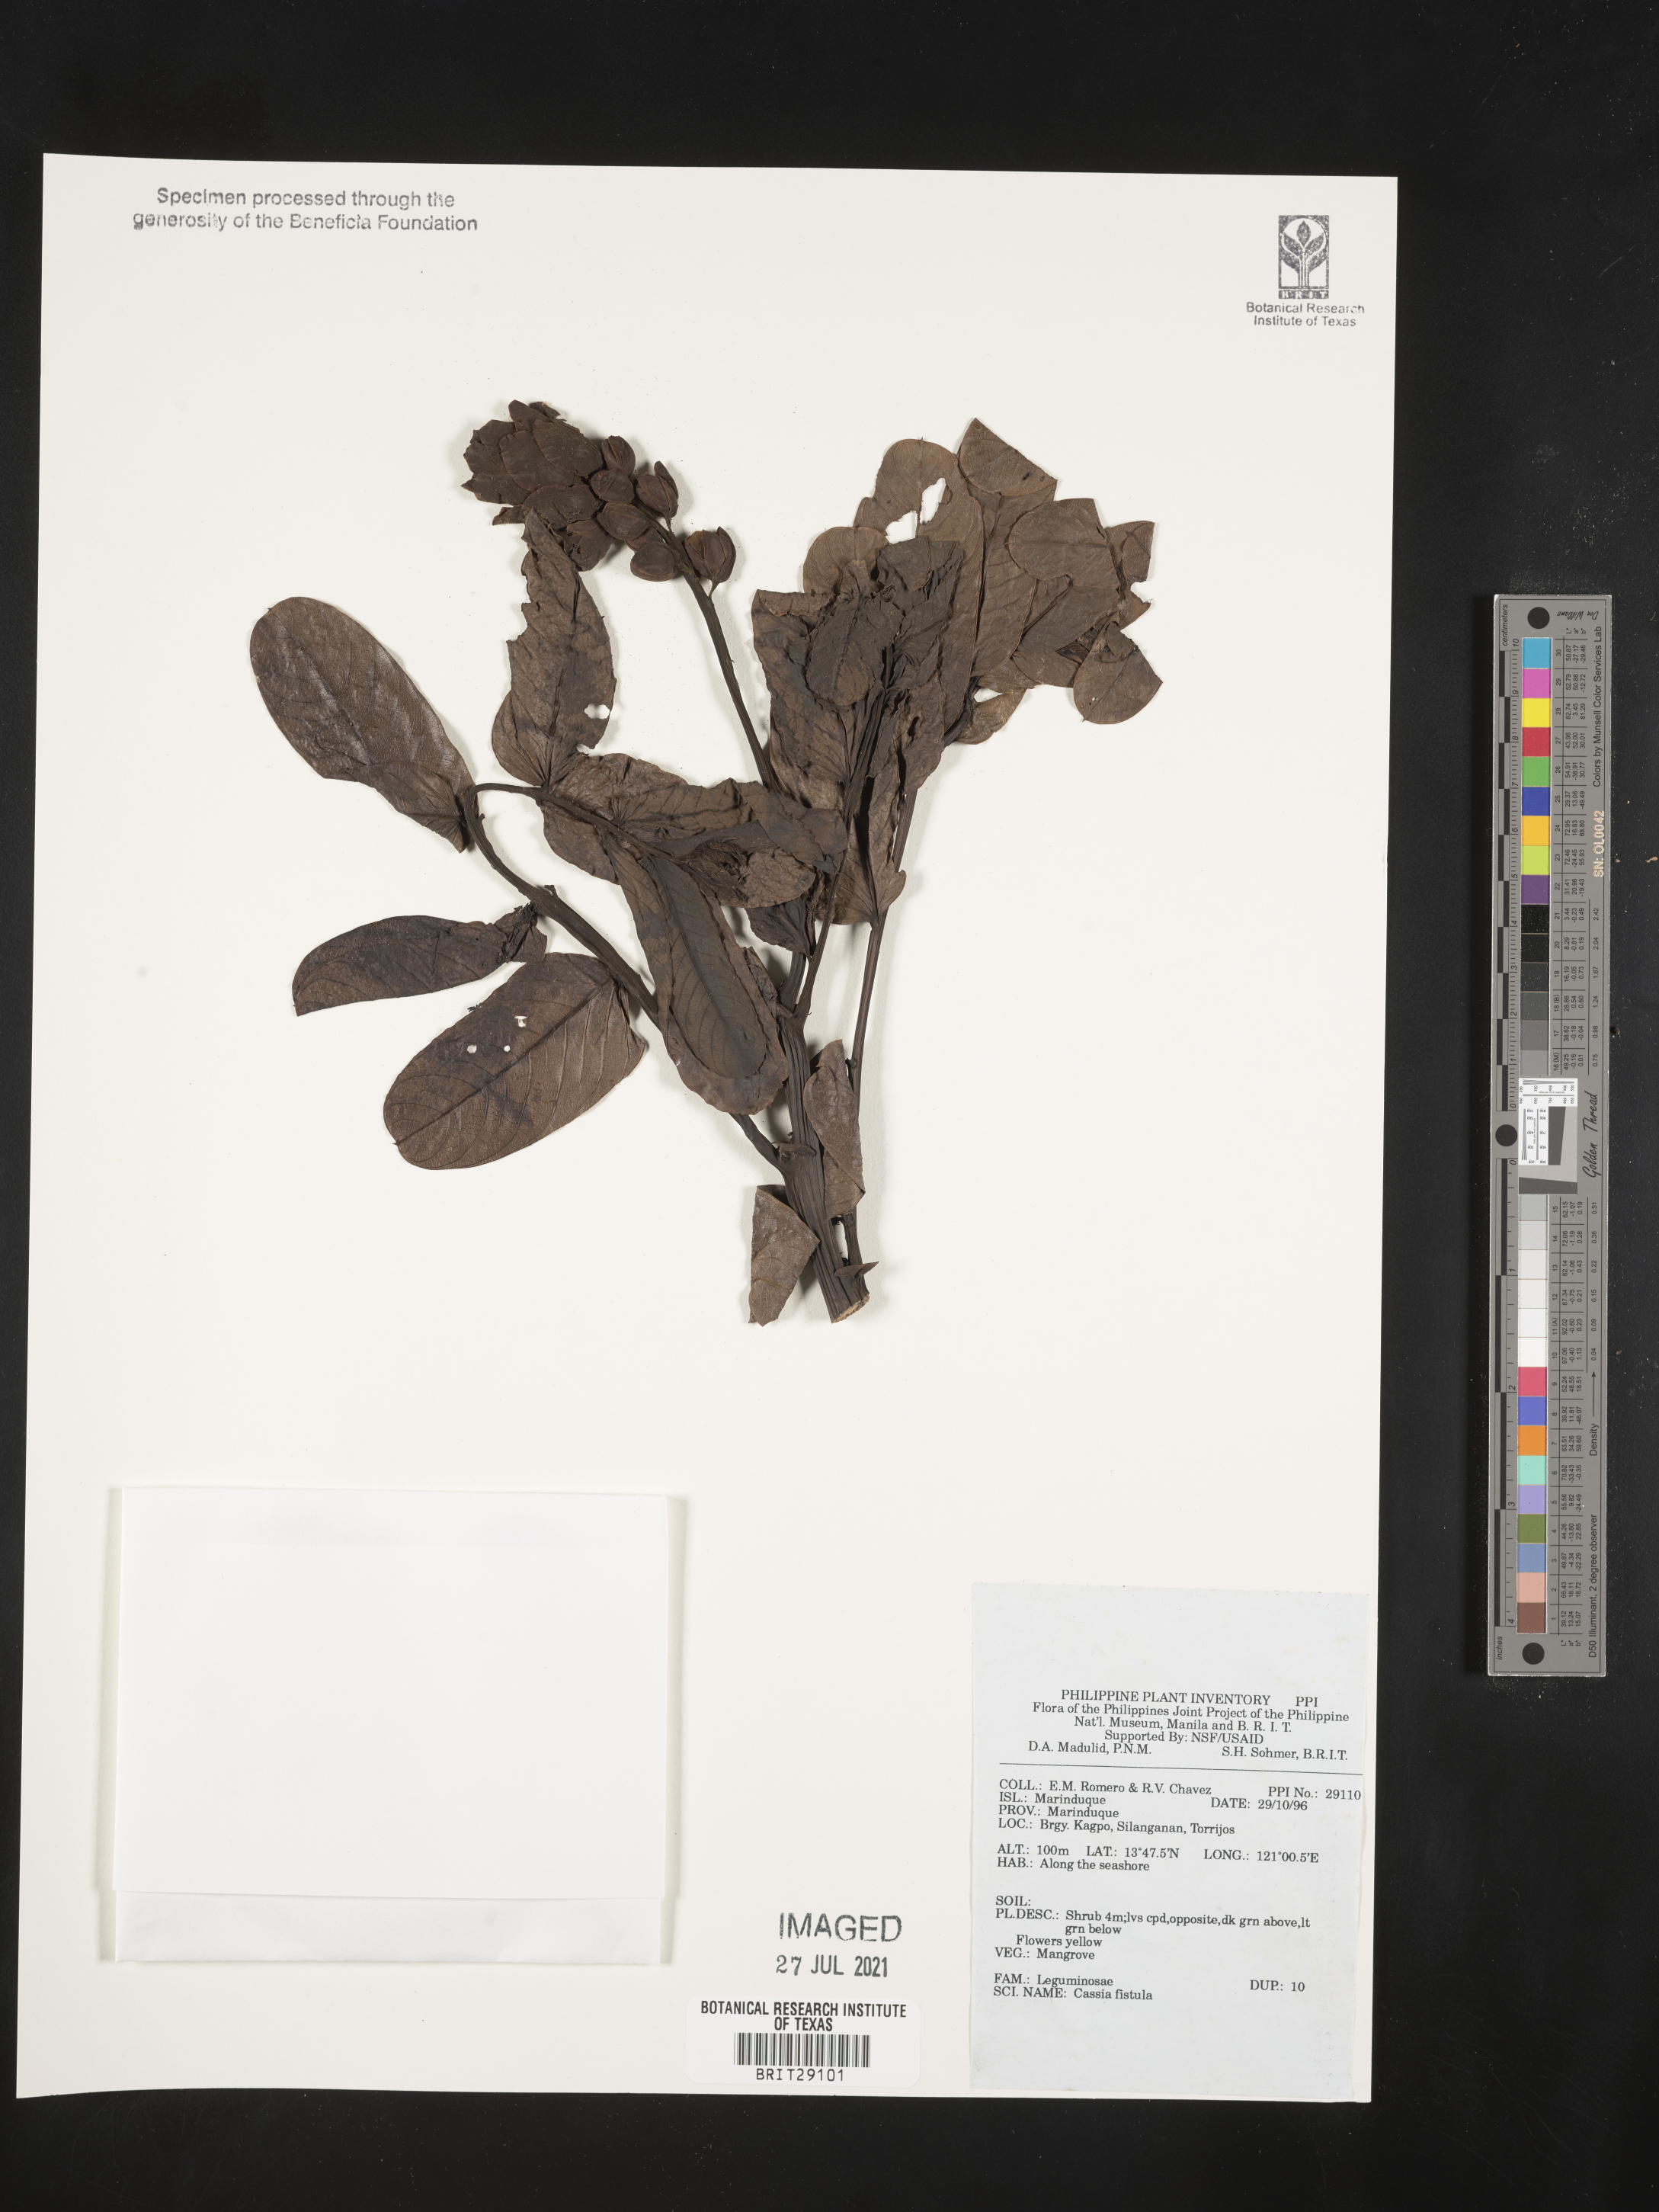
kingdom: Plantae
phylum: Tracheophyta
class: Magnoliopsida
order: Fabales
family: Fabaceae
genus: Cassia
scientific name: Cassia fistula
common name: Golden shower
